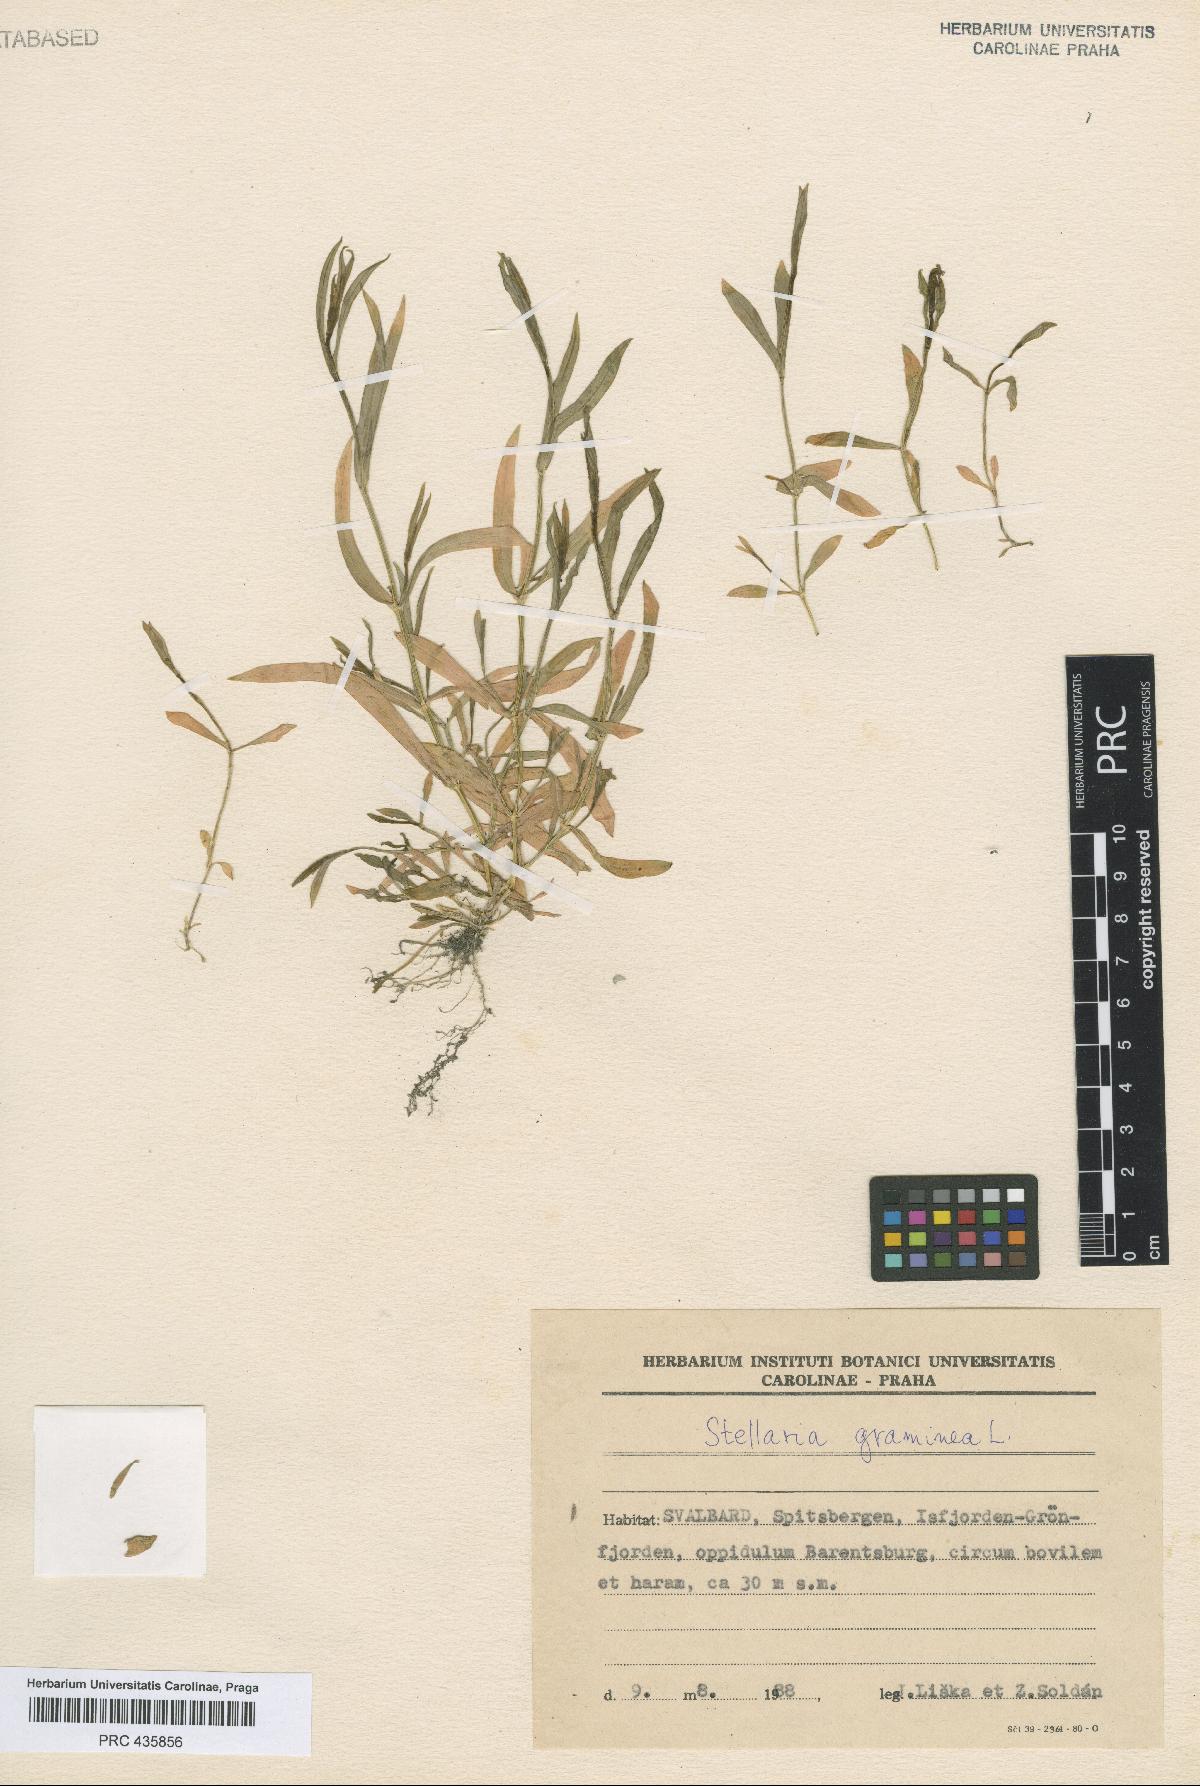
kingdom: Plantae
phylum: Tracheophyta
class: Magnoliopsida
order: Caryophyllales
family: Caryophyllaceae
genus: Stellaria
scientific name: Stellaria graminea
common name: Grass-like starwort
